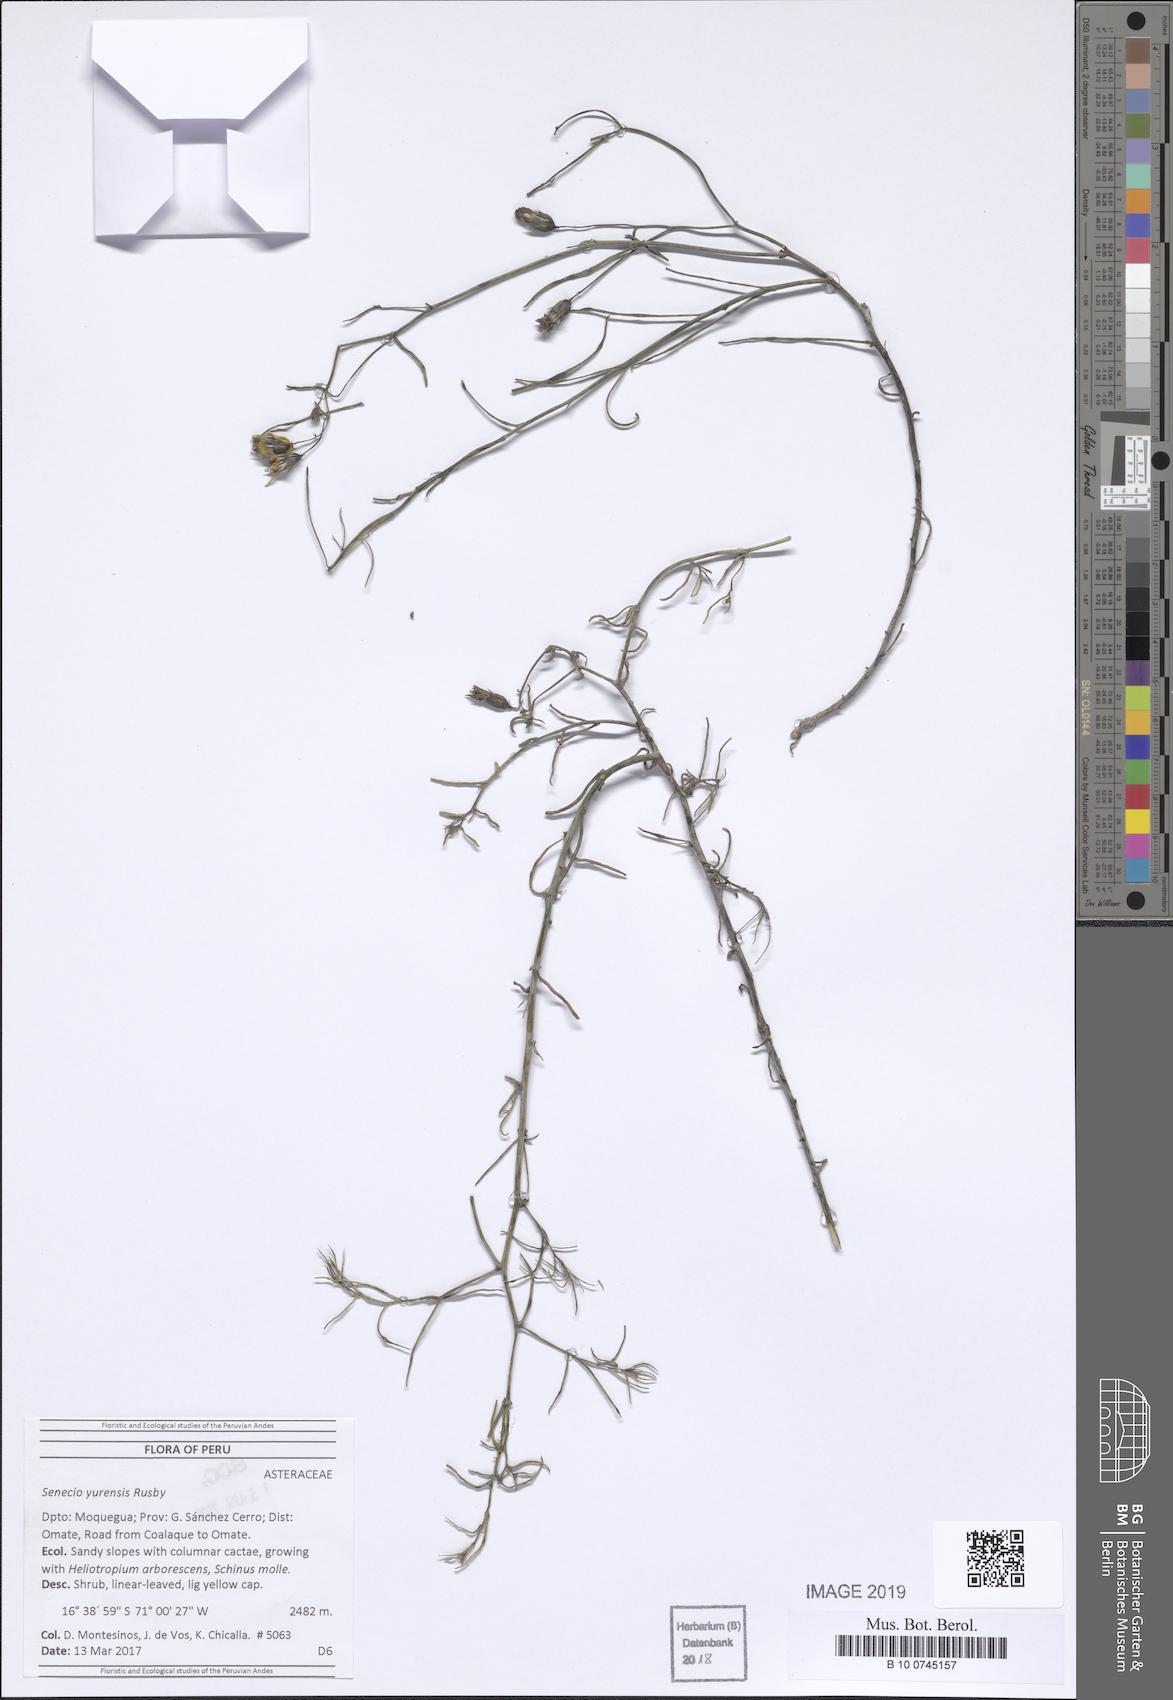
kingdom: Plantae
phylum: Tracheophyta
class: Magnoliopsida
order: Asterales
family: Asteraceae
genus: Senecio
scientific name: Senecio yurensis
